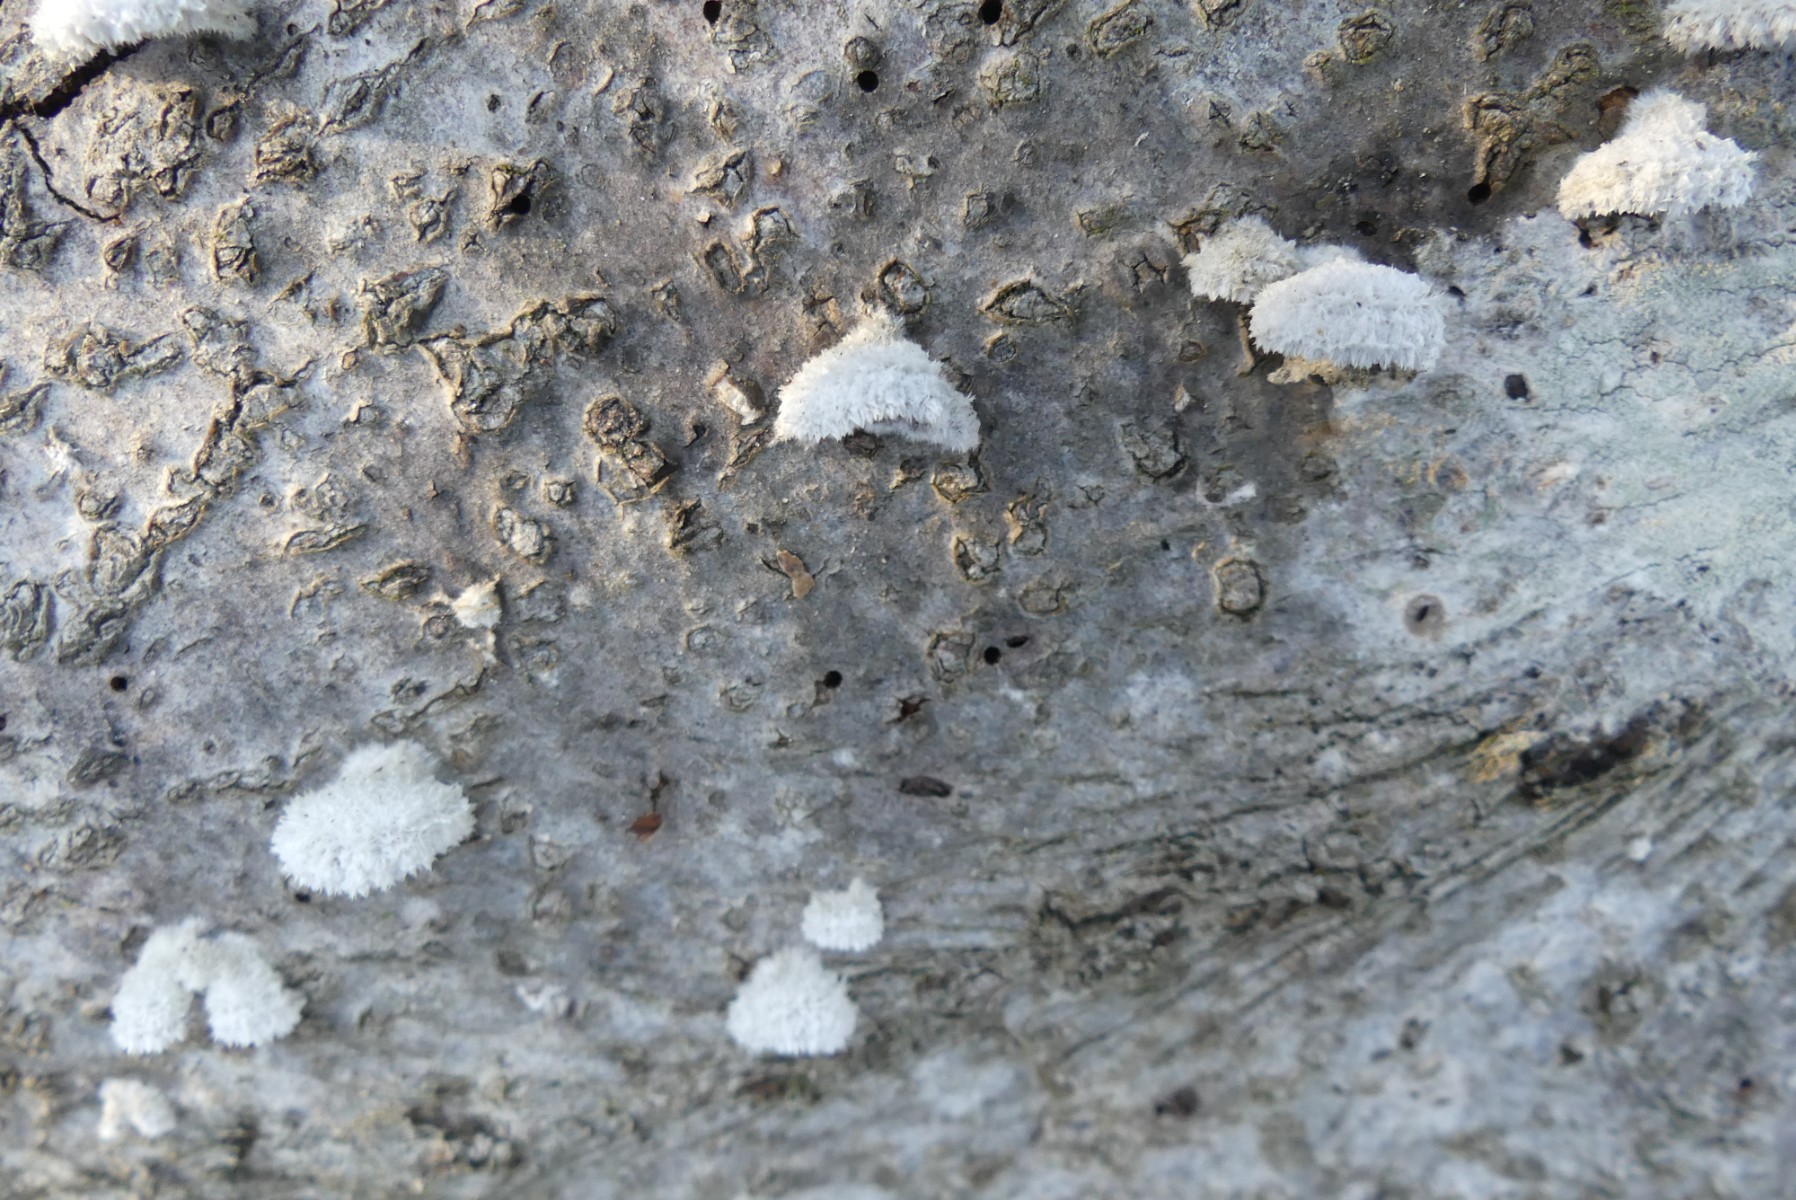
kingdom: Fungi
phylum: Basidiomycota
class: Agaricomycetes
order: Agaricales
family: Schizophyllaceae
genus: Schizophyllum
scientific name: Schizophyllum commune
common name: kløvblad
